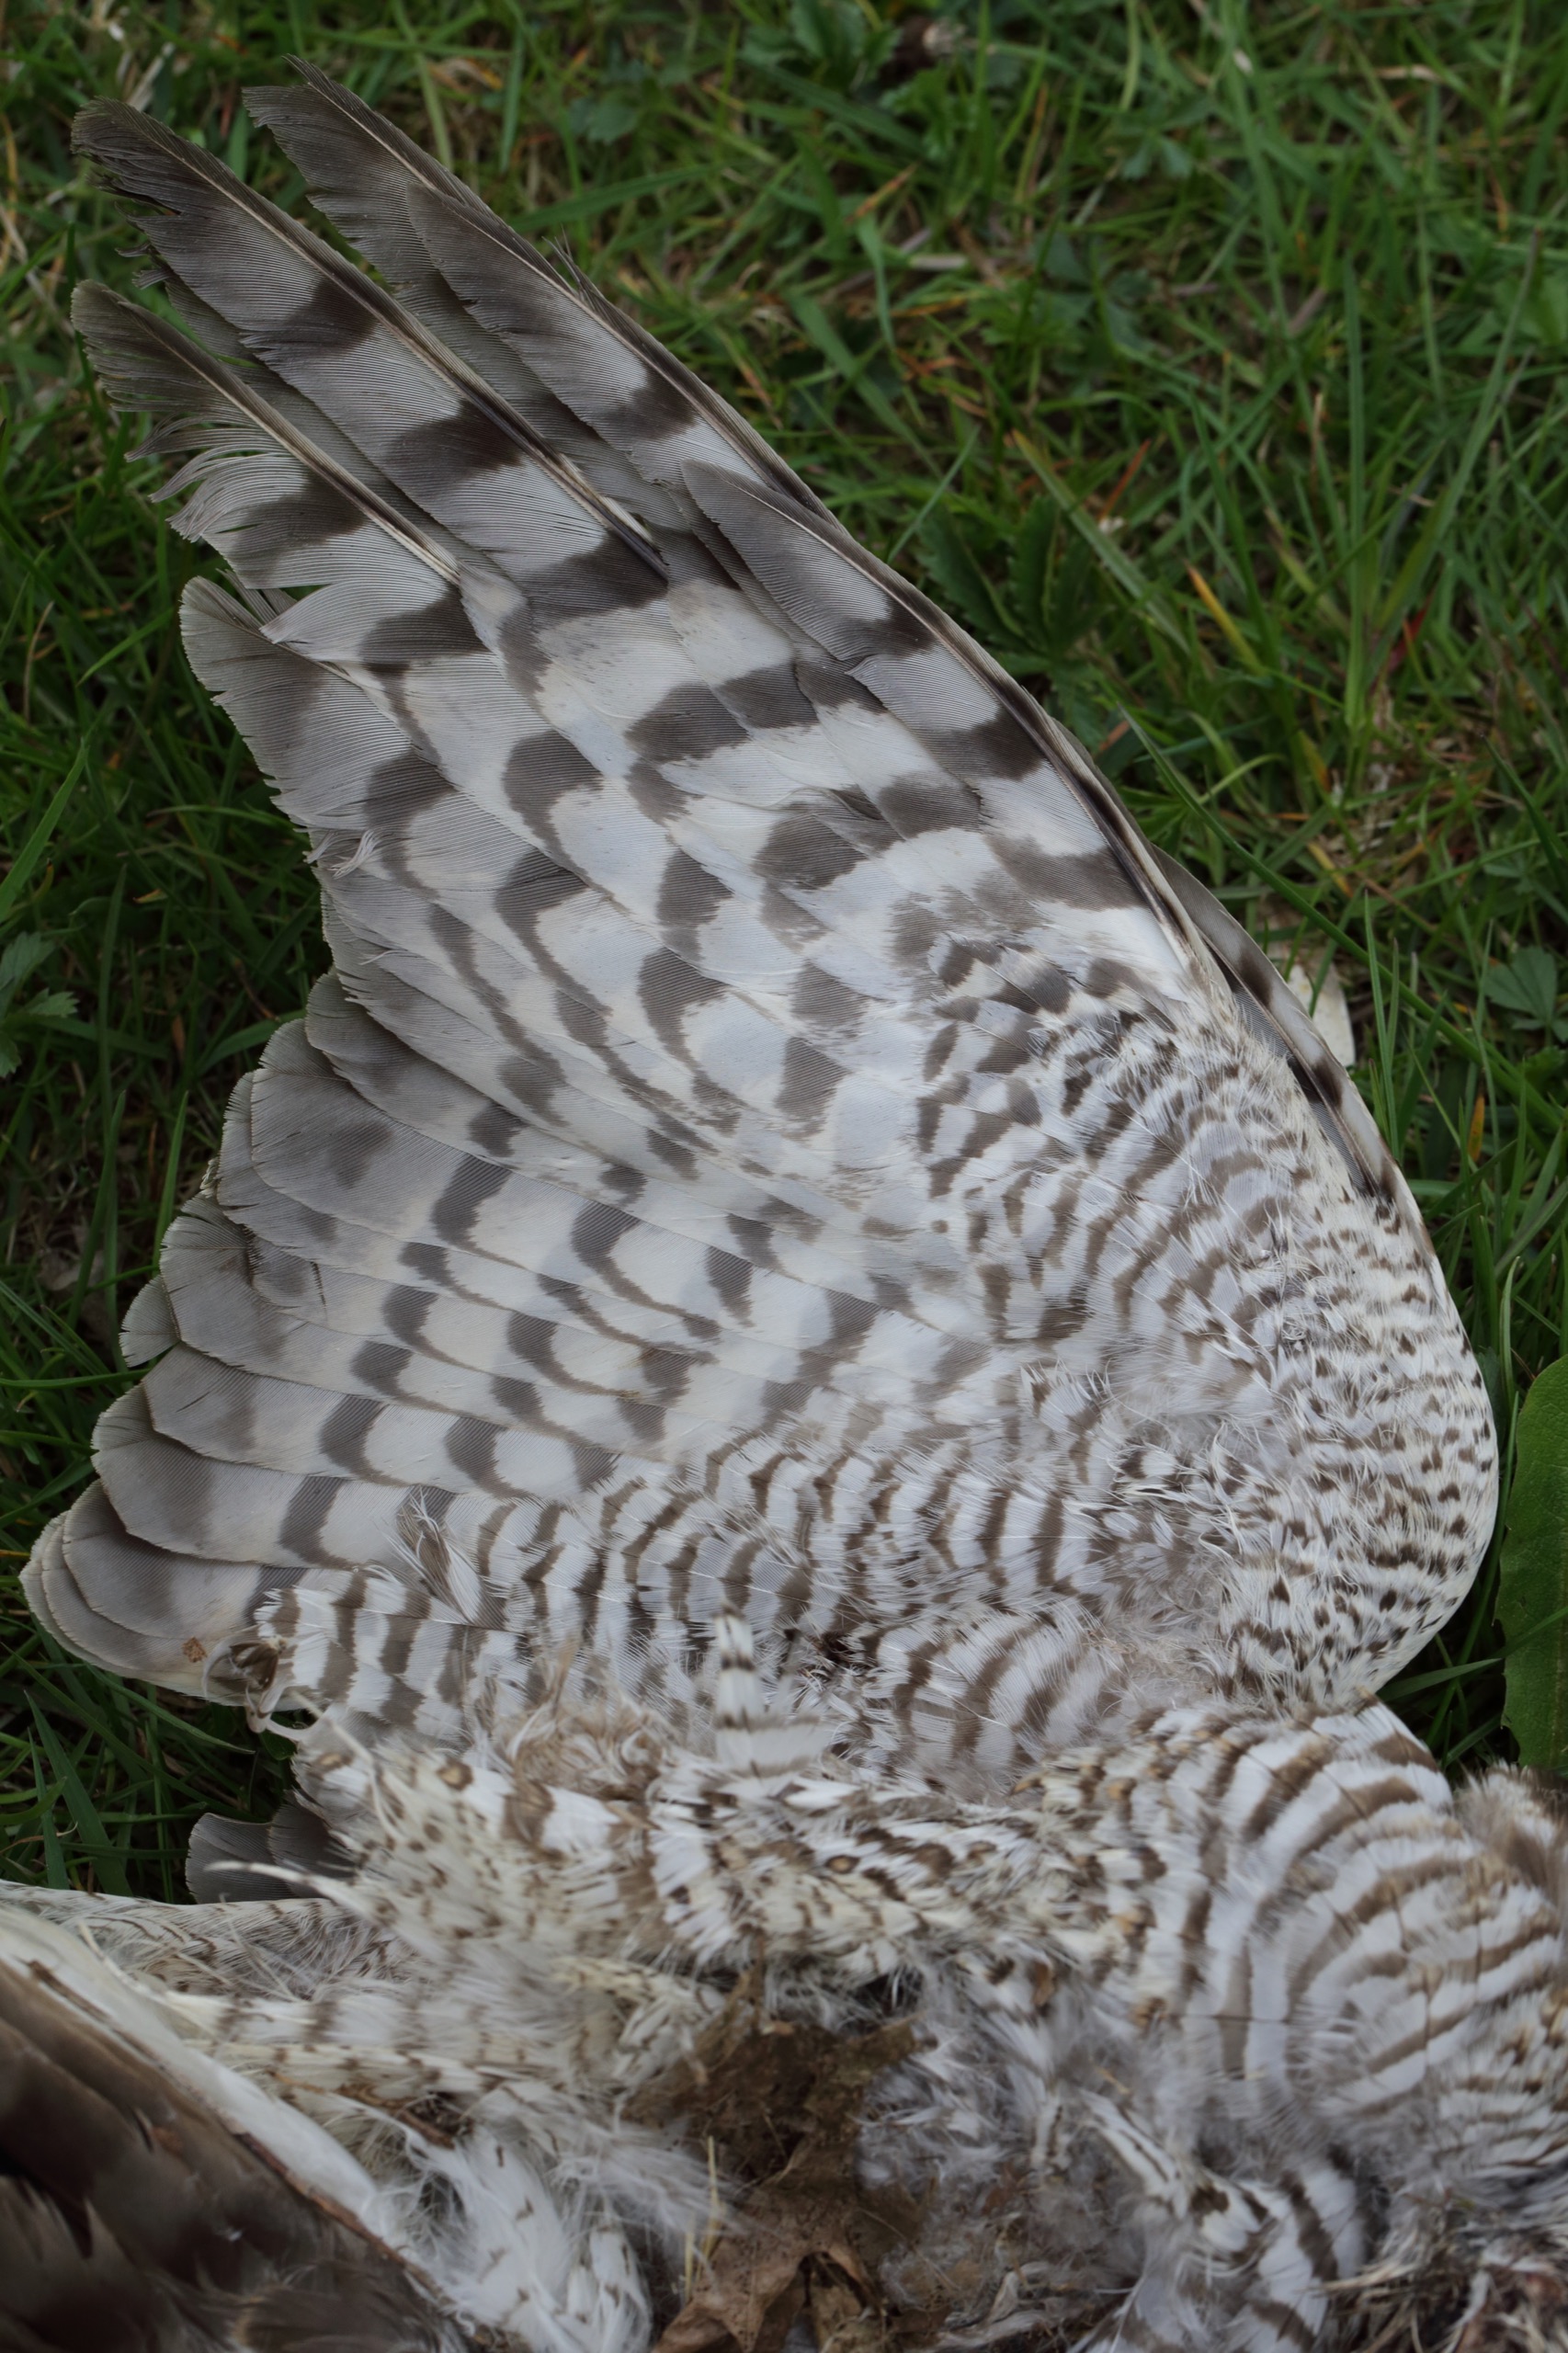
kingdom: Animalia
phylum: Chordata
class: Aves
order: Accipitriformes
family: Accipitridae
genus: Accipiter
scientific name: Accipiter nisus
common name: Spurvehøg
